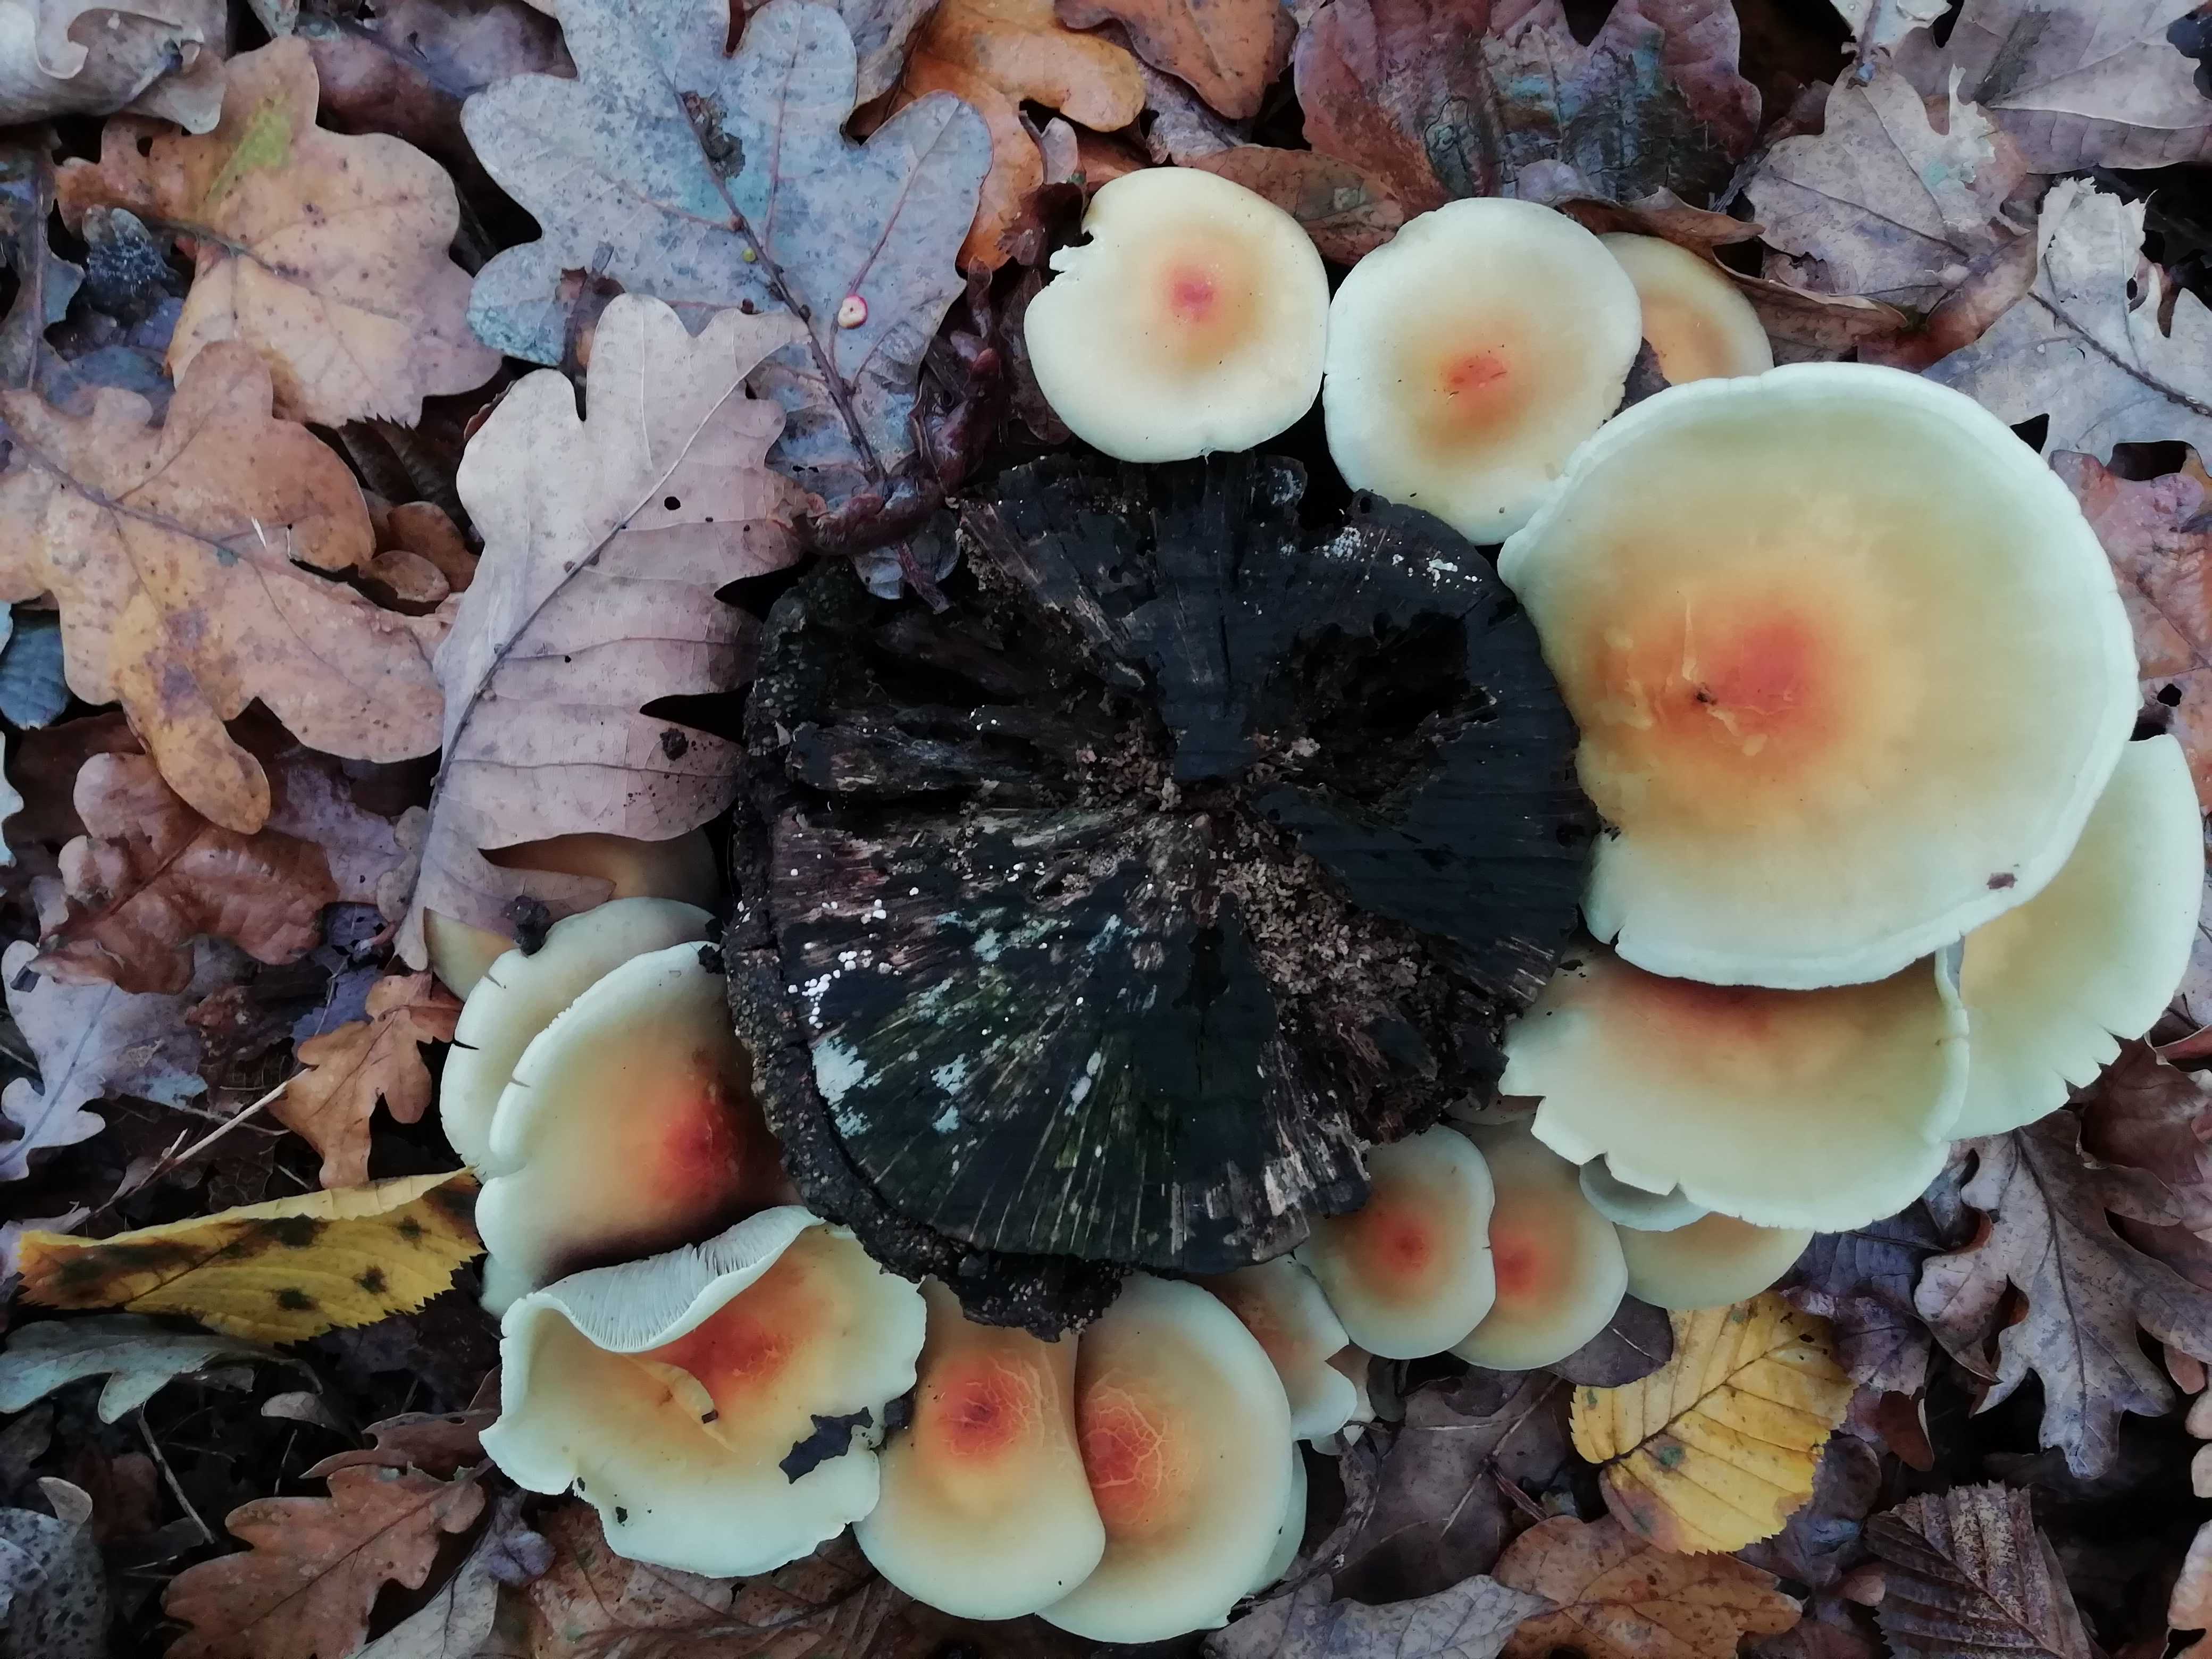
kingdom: Fungi
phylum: Basidiomycota
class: Agaricomycetes
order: Agaricales
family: Strophariaceae
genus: Hypholoma
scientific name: Hypholoma fasciculare
